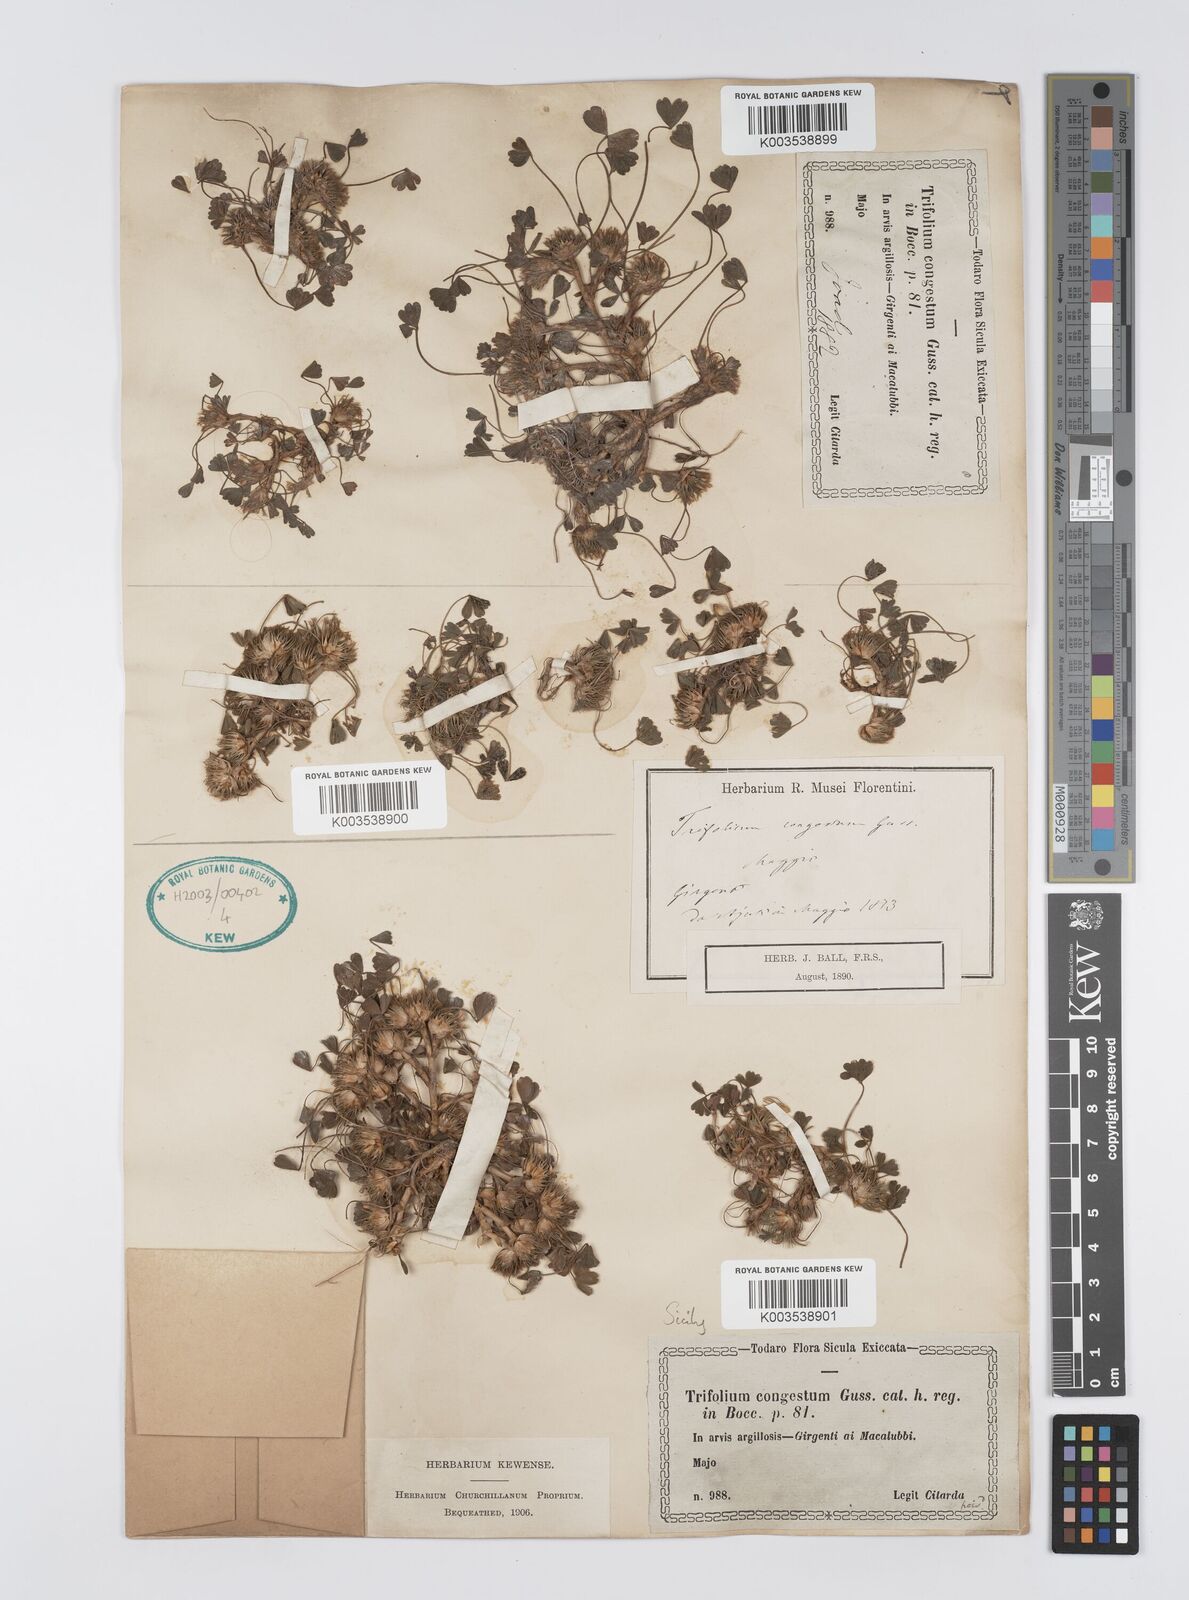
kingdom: Plantae
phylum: Tracheophyta
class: Magnoliopsida
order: Fabales
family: Fabaceae
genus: Trifolium
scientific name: Trifolium fragiferum
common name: Strawberry clover
